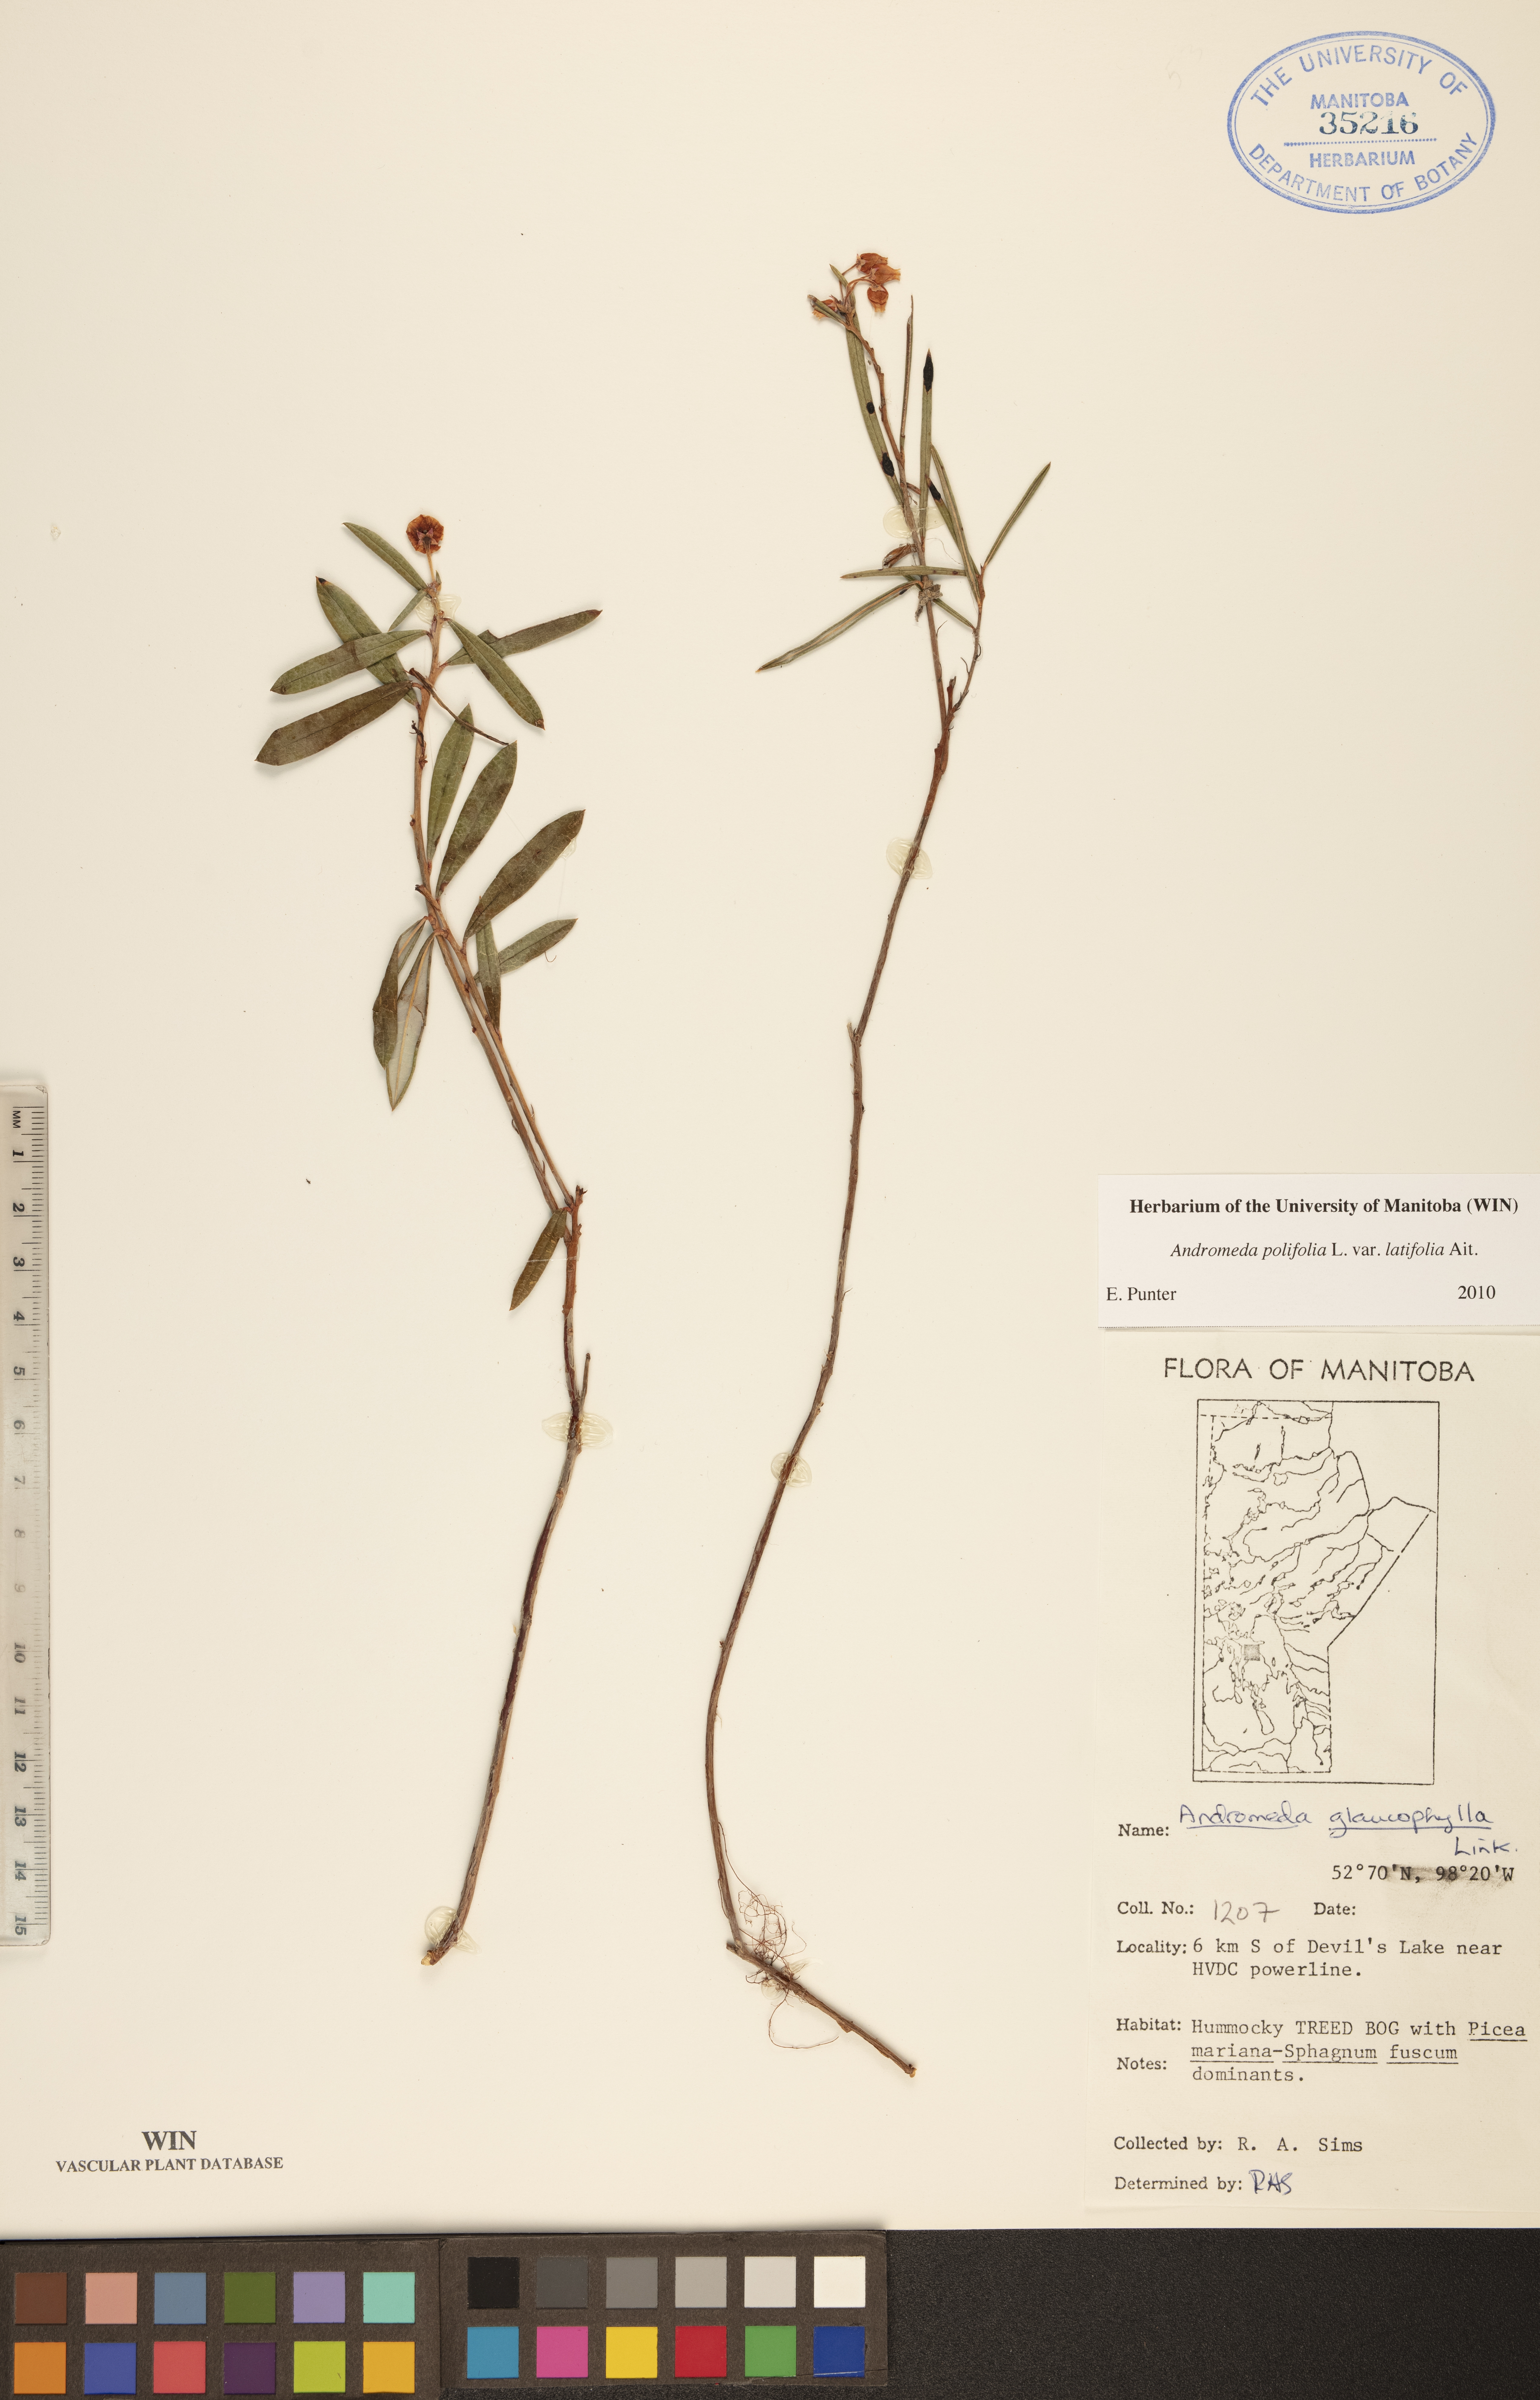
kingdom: Plantae
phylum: Tracheophyta
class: Magnoliopsida
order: Ericales
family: Ericaceae
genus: Andromeda
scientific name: Andromeda polifolia
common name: Bog-rosemary
